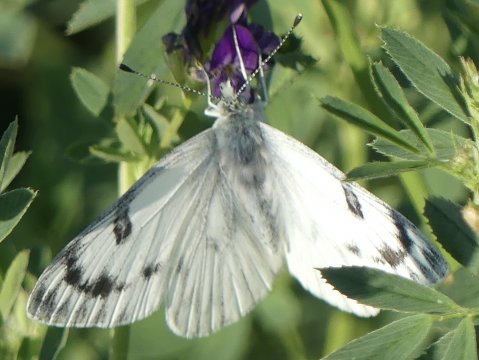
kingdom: Animalia
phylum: Arthropoda
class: Insecta
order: Lepidoptera
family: Pieridae
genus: Pontia
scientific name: Pontia occidentalis
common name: Western White
